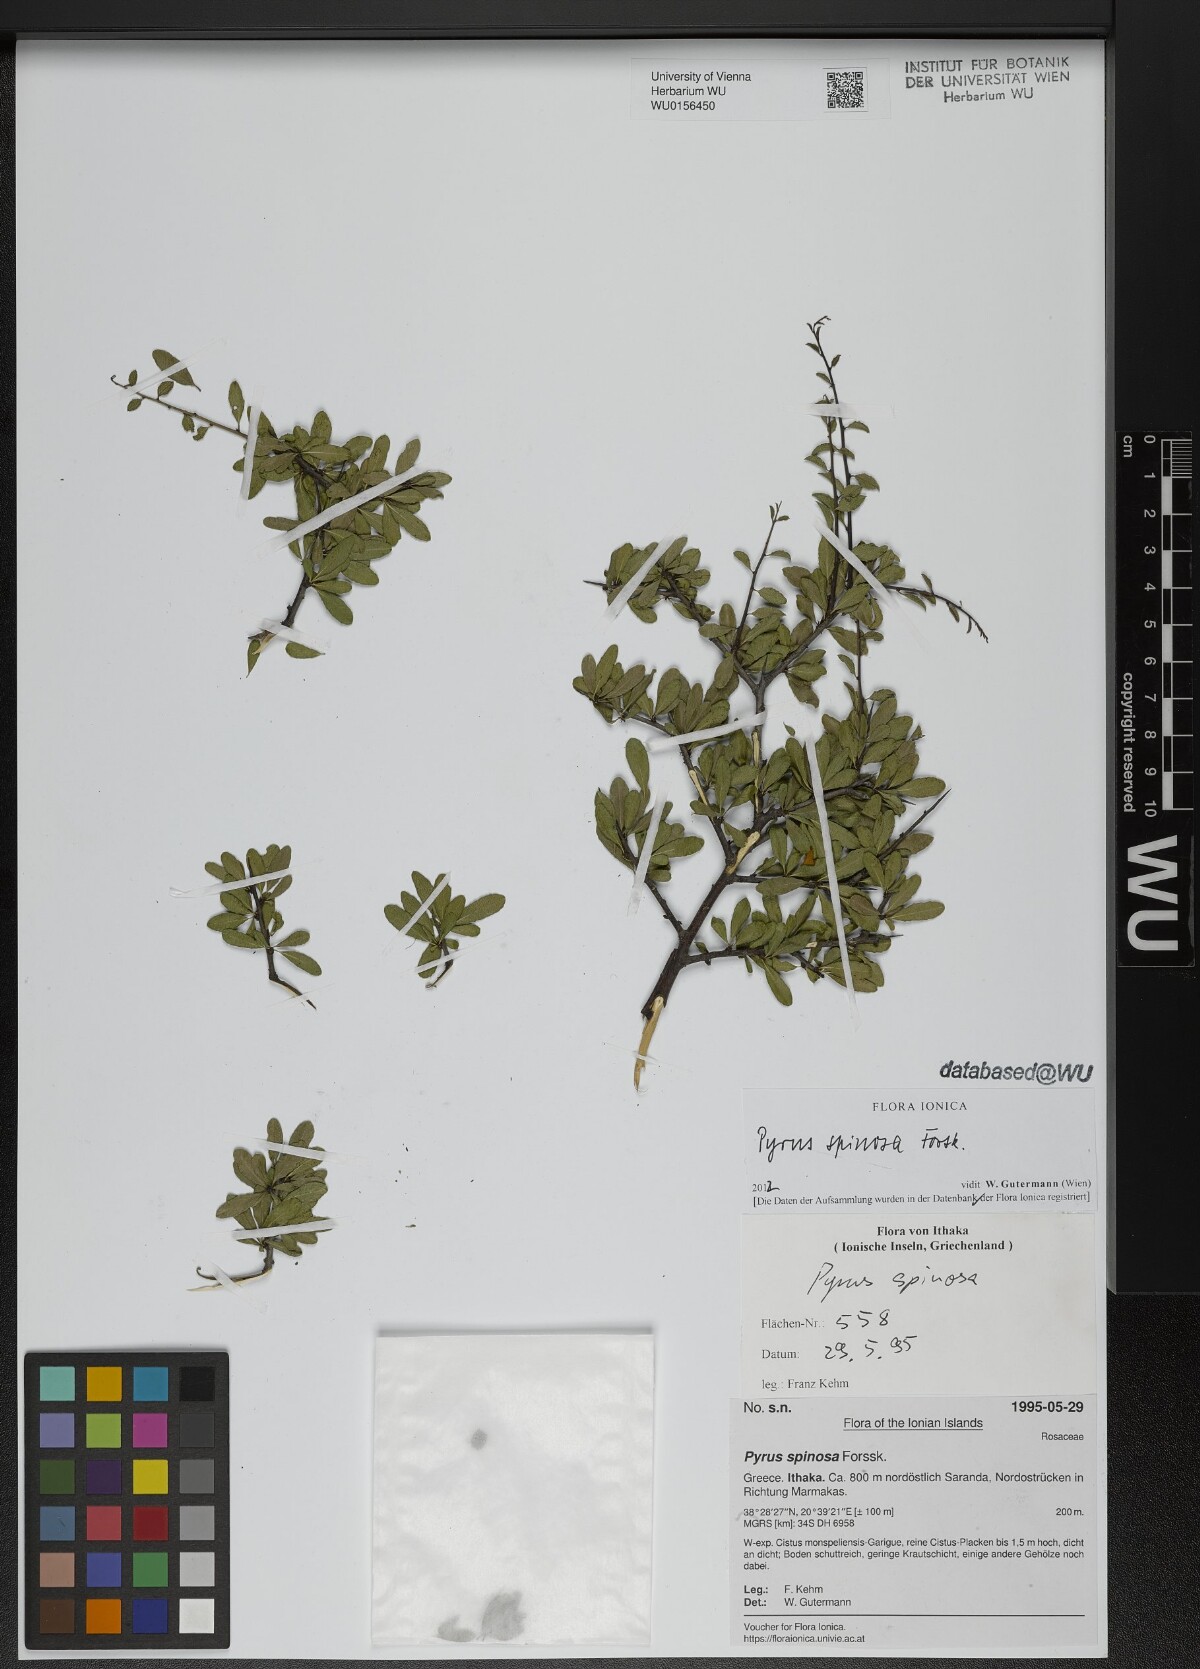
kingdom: Plantae
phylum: Tracheophyta
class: Magnoliopsida
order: Rosales
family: Rosaceae
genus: Pyrus
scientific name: Pyrus spinosa
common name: Almond-leaf pear
